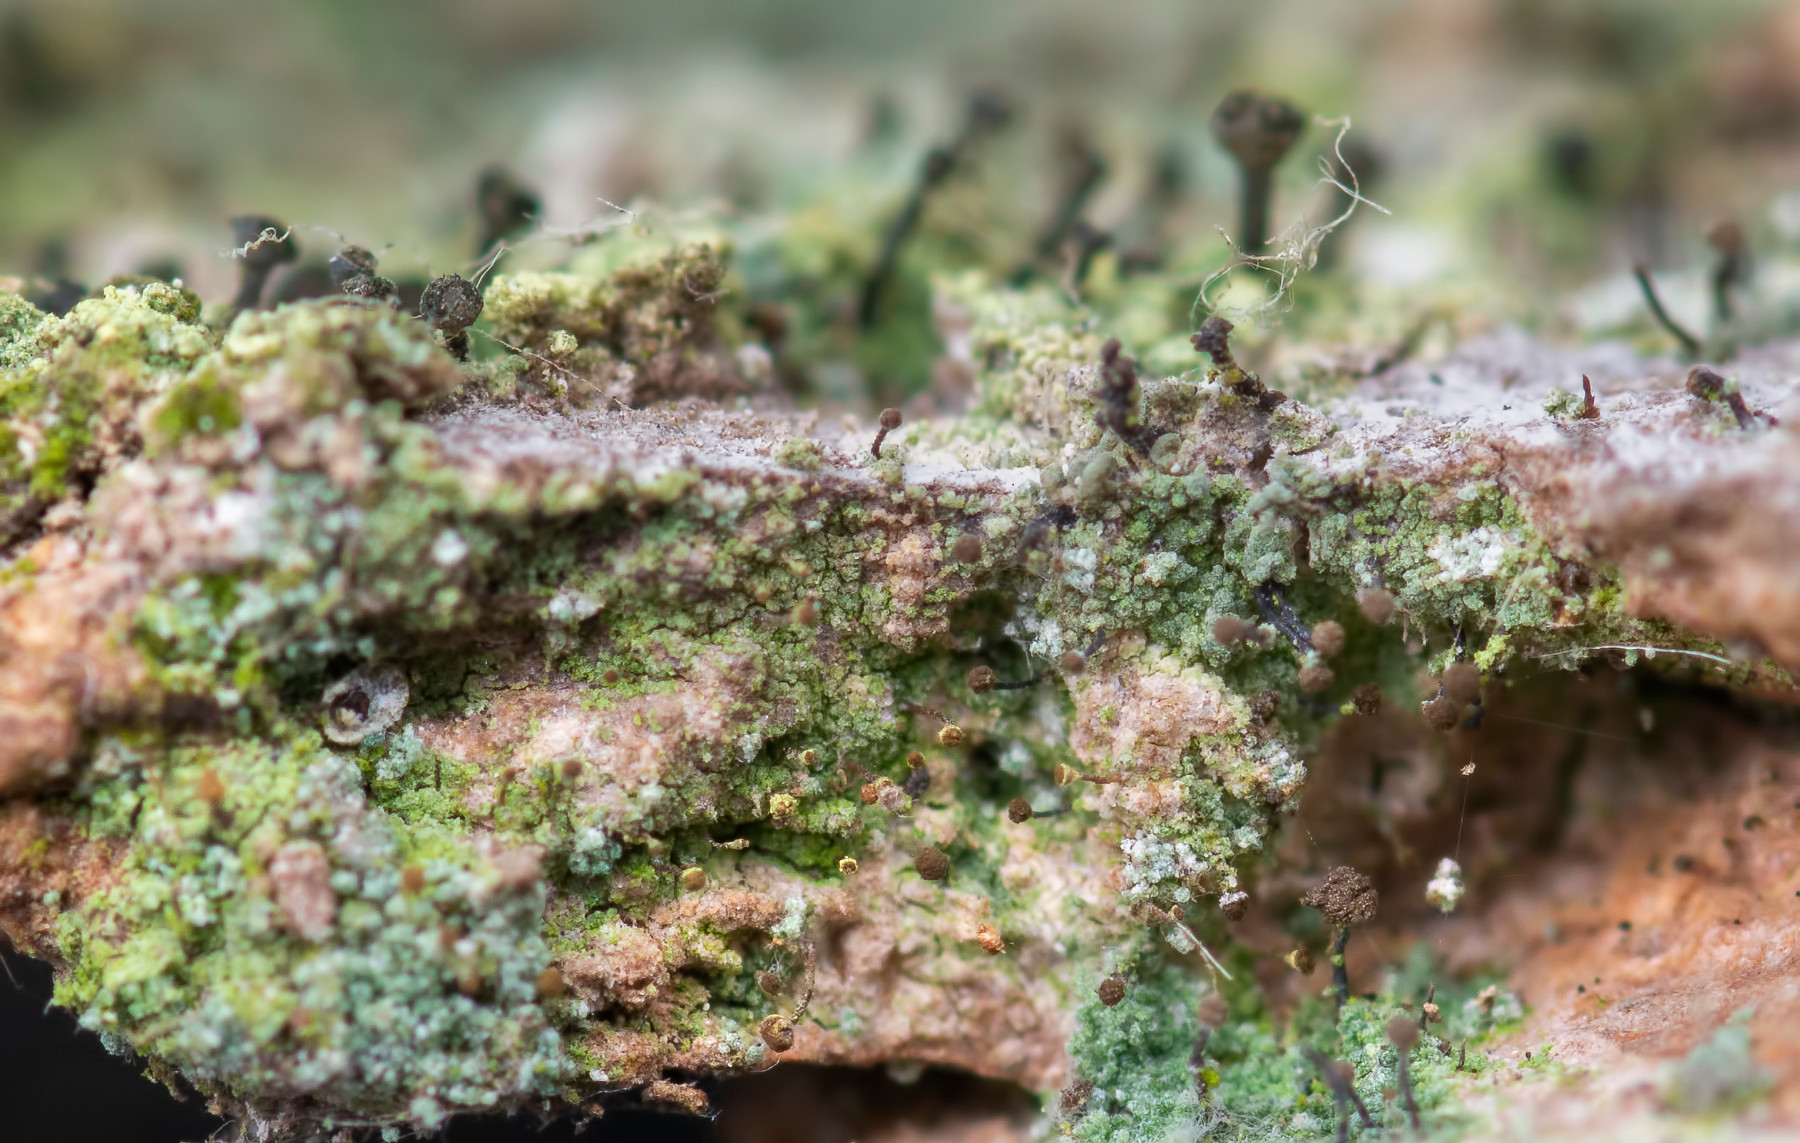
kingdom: Fungi
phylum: Ascomycota
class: Coniocybomycetes
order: Coniocybales
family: Coniocybaceae
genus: Chaenotheca
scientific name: Chaenotheca chlorella
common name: grønlig knappenålslav
